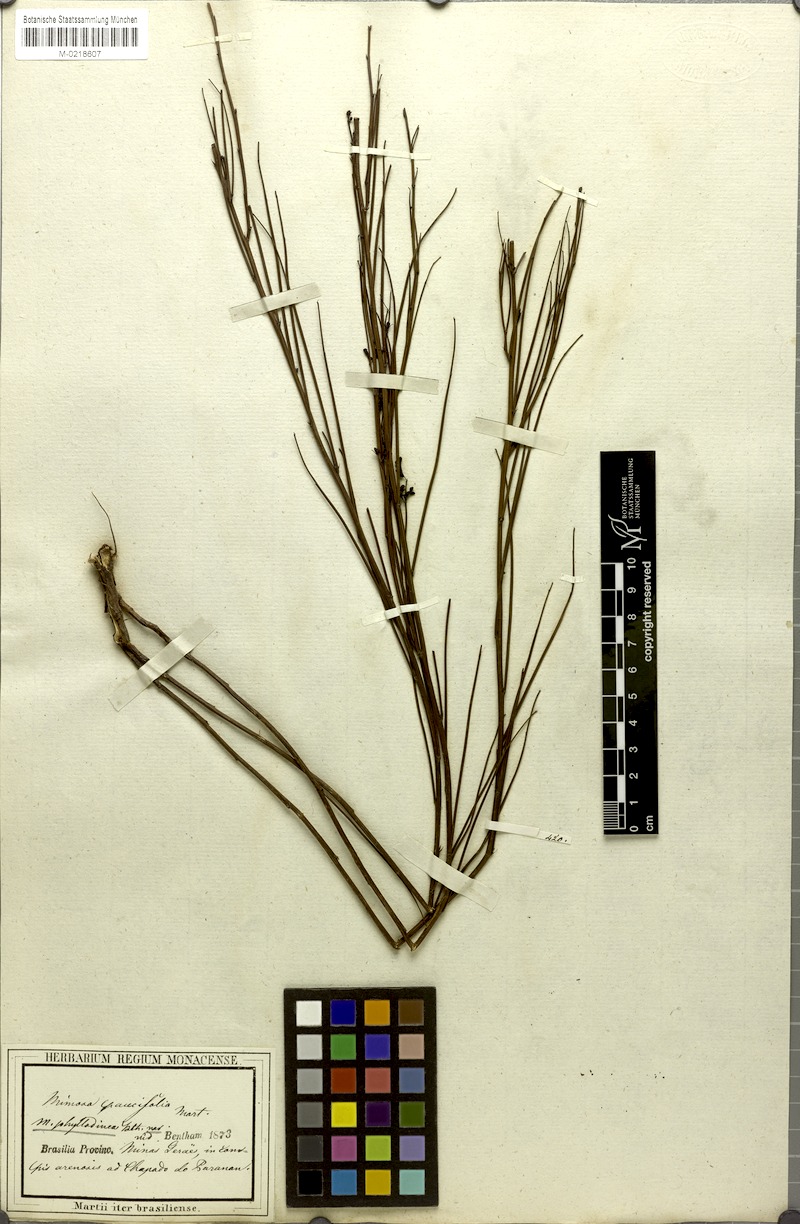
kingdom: Plantae
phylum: Tracheophyta
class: Magnoliopsida
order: Fabales
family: Fabaceae
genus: Mimosa
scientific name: Mimosa piptoptera
